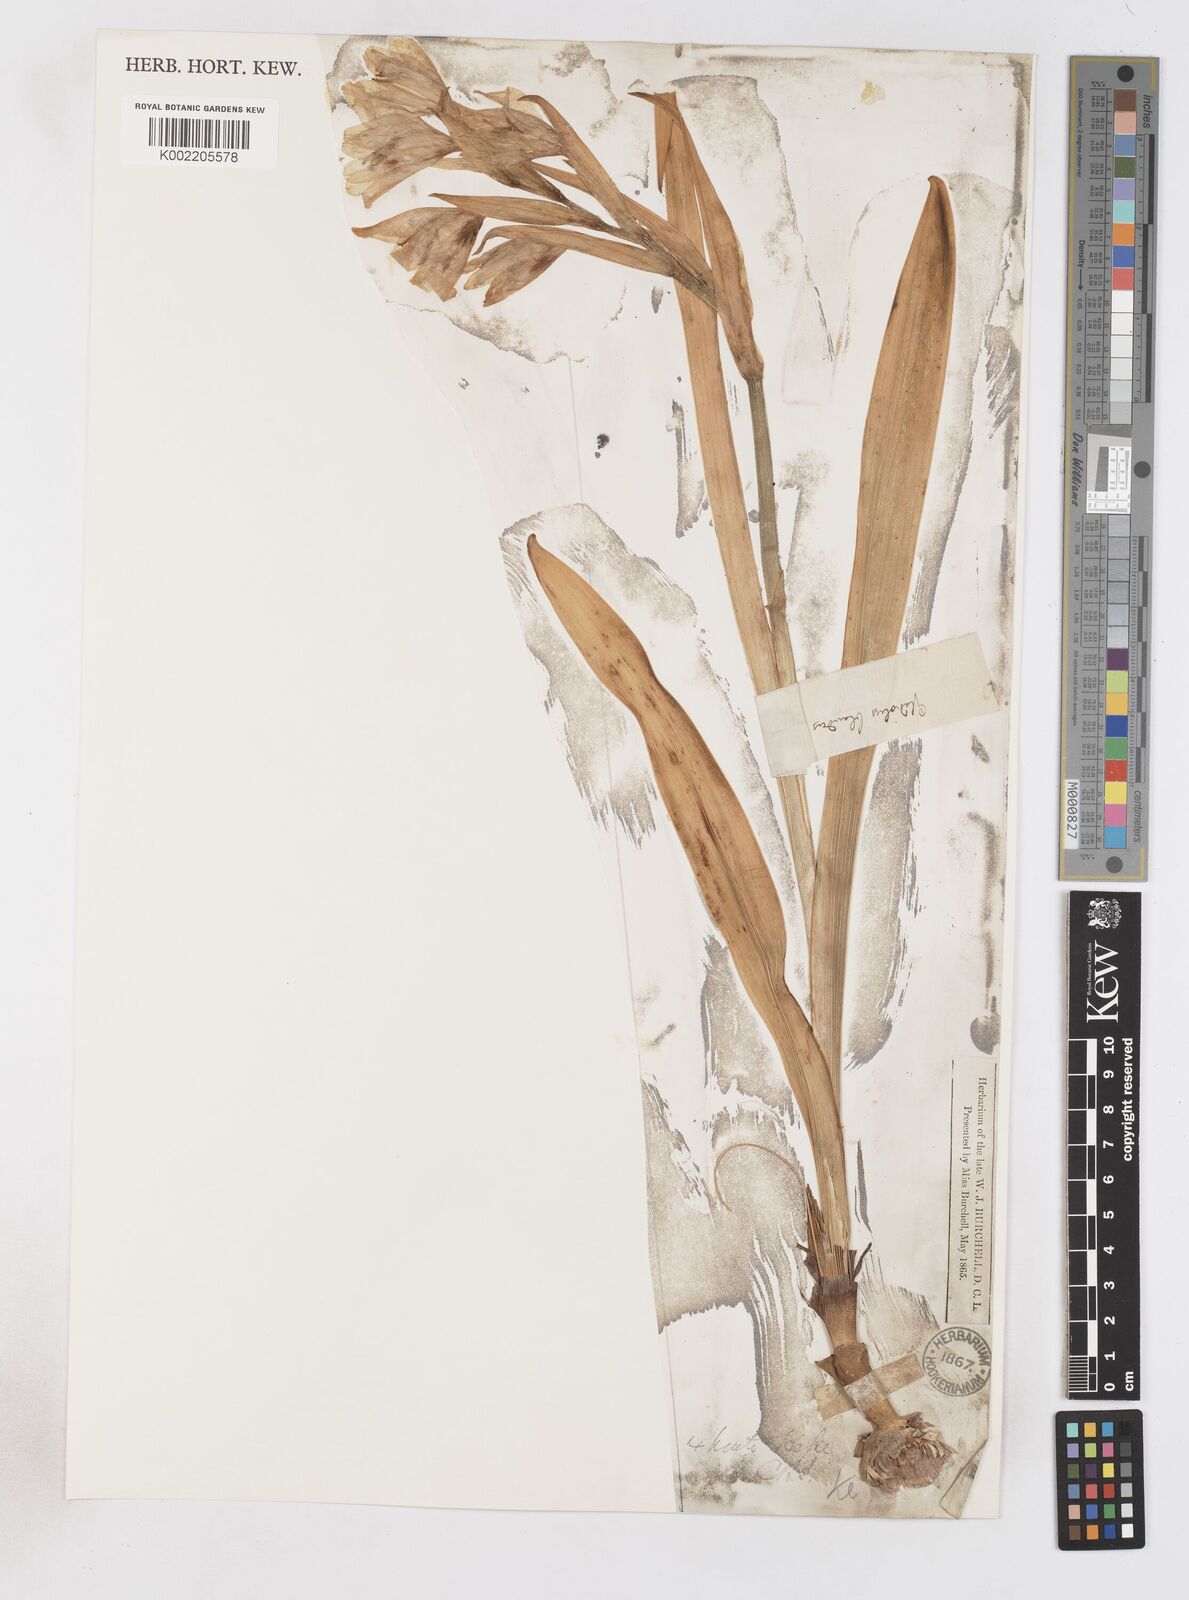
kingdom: Plantae
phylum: Tracheophyta
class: Liliopsida
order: Asparagales
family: Iridaceae
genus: Gladiolus
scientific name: Gladiolus carneus
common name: Painted-lady
